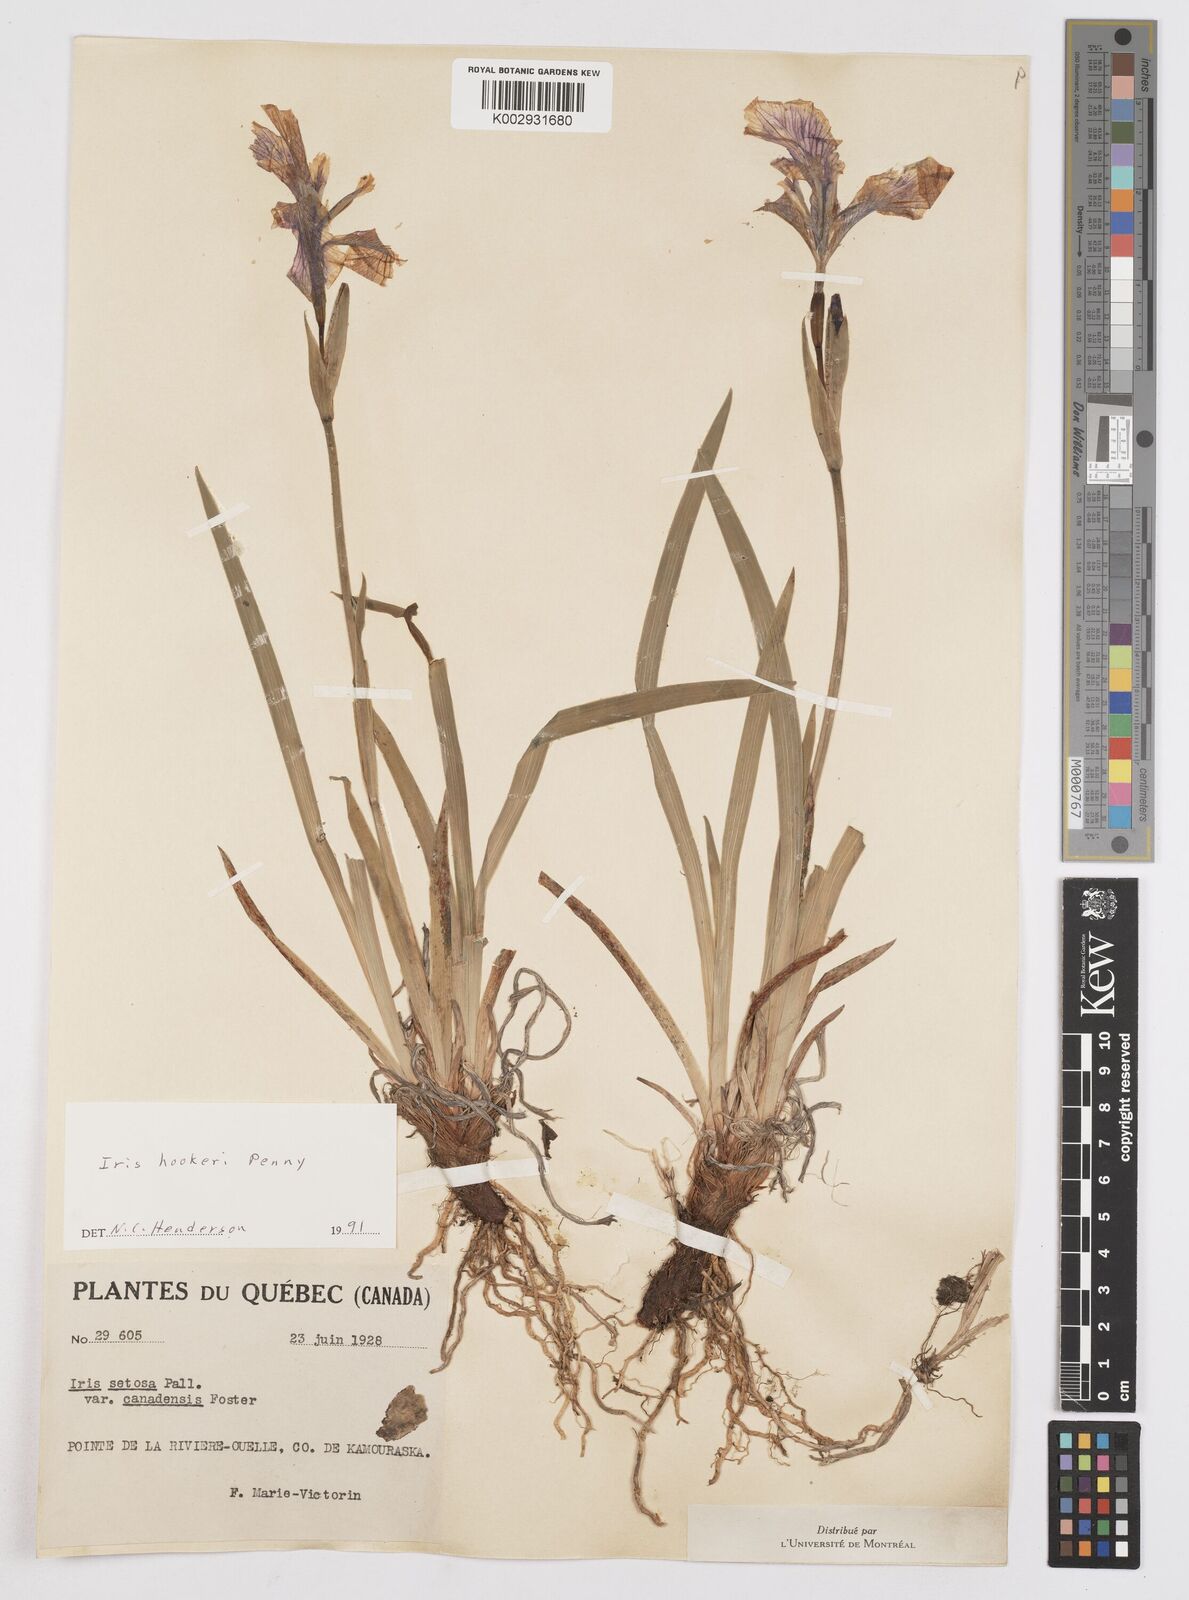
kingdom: Plantae
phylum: Tracheophyta
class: Liliopsida
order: Asparagales
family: Iridaceae
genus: Iris
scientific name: Iris setosa
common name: Arctic blue flag
